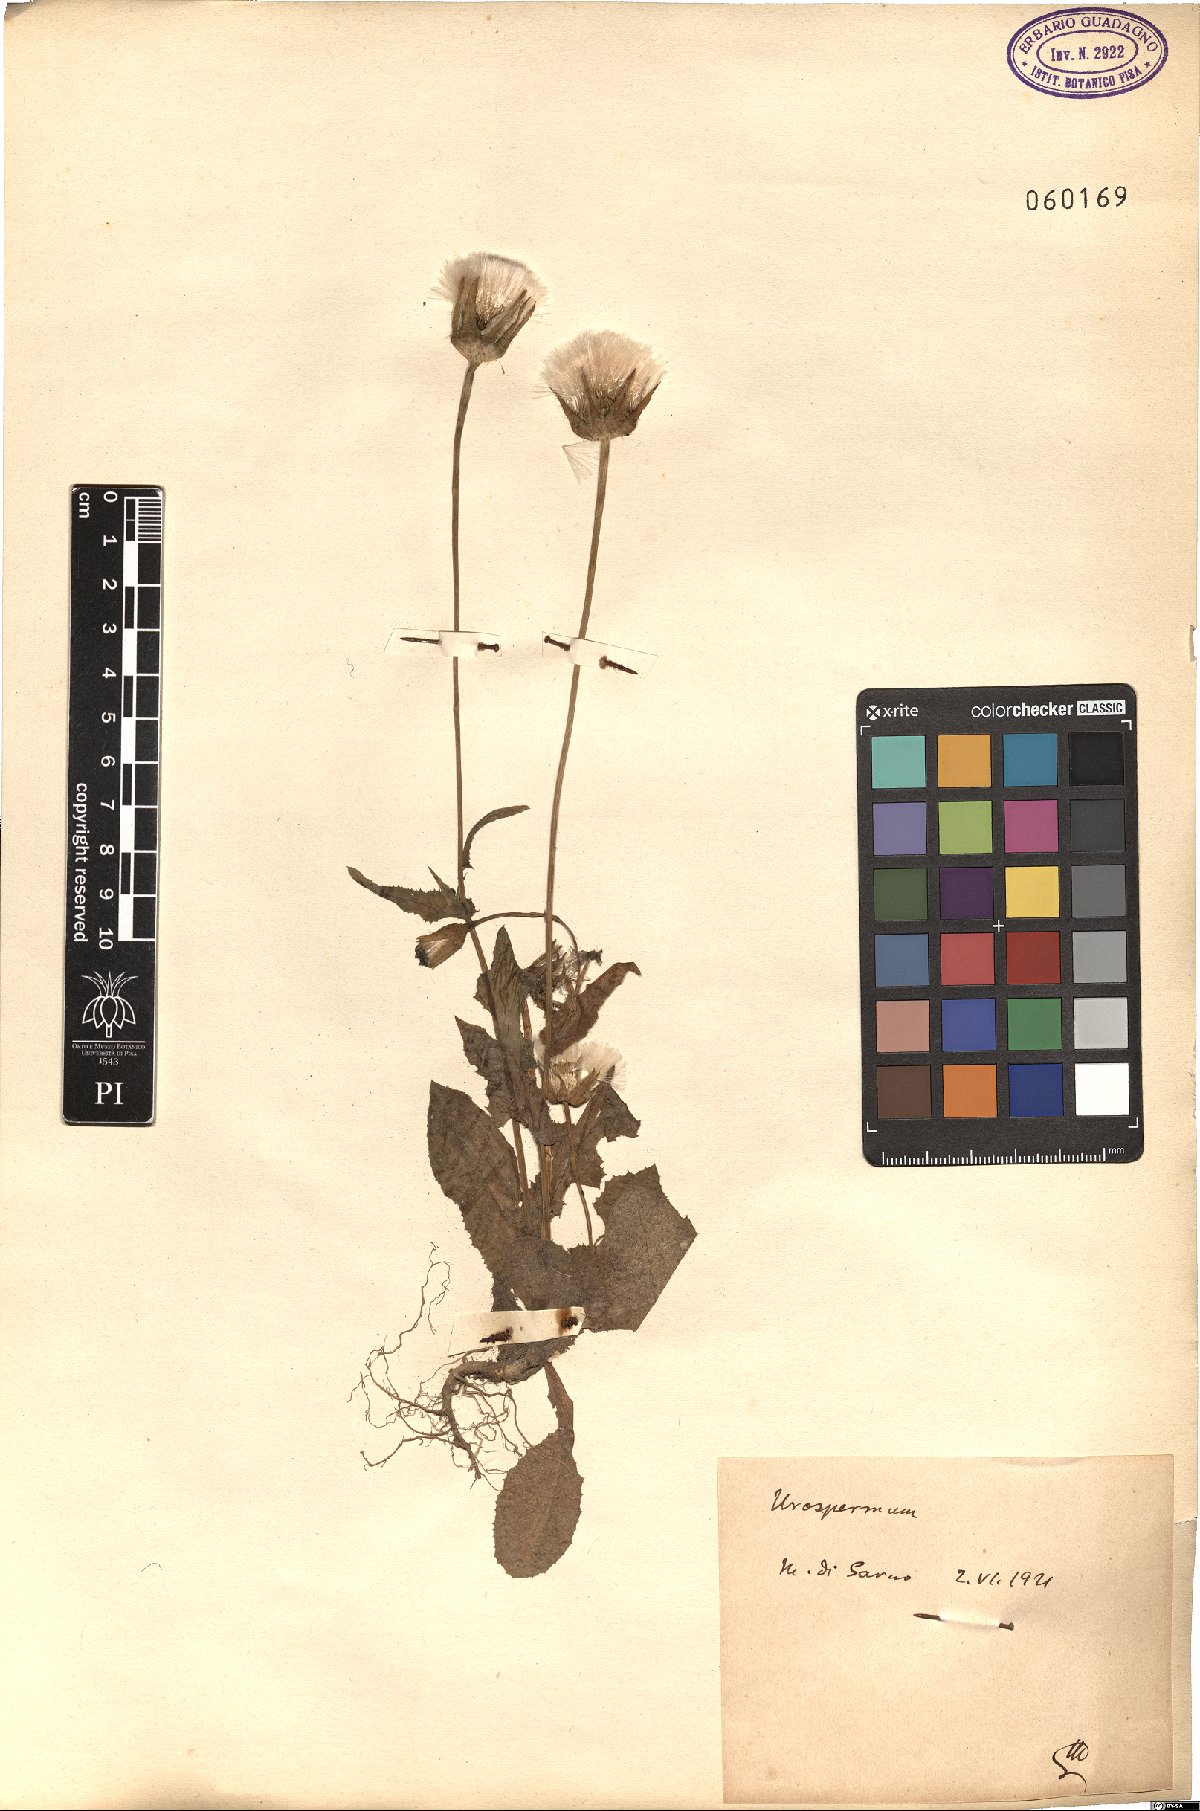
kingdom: Plantae
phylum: Tracheophyta
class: Magnoliopsida
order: Asterales
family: Asteraceae
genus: Urospermum
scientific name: Urospermum
